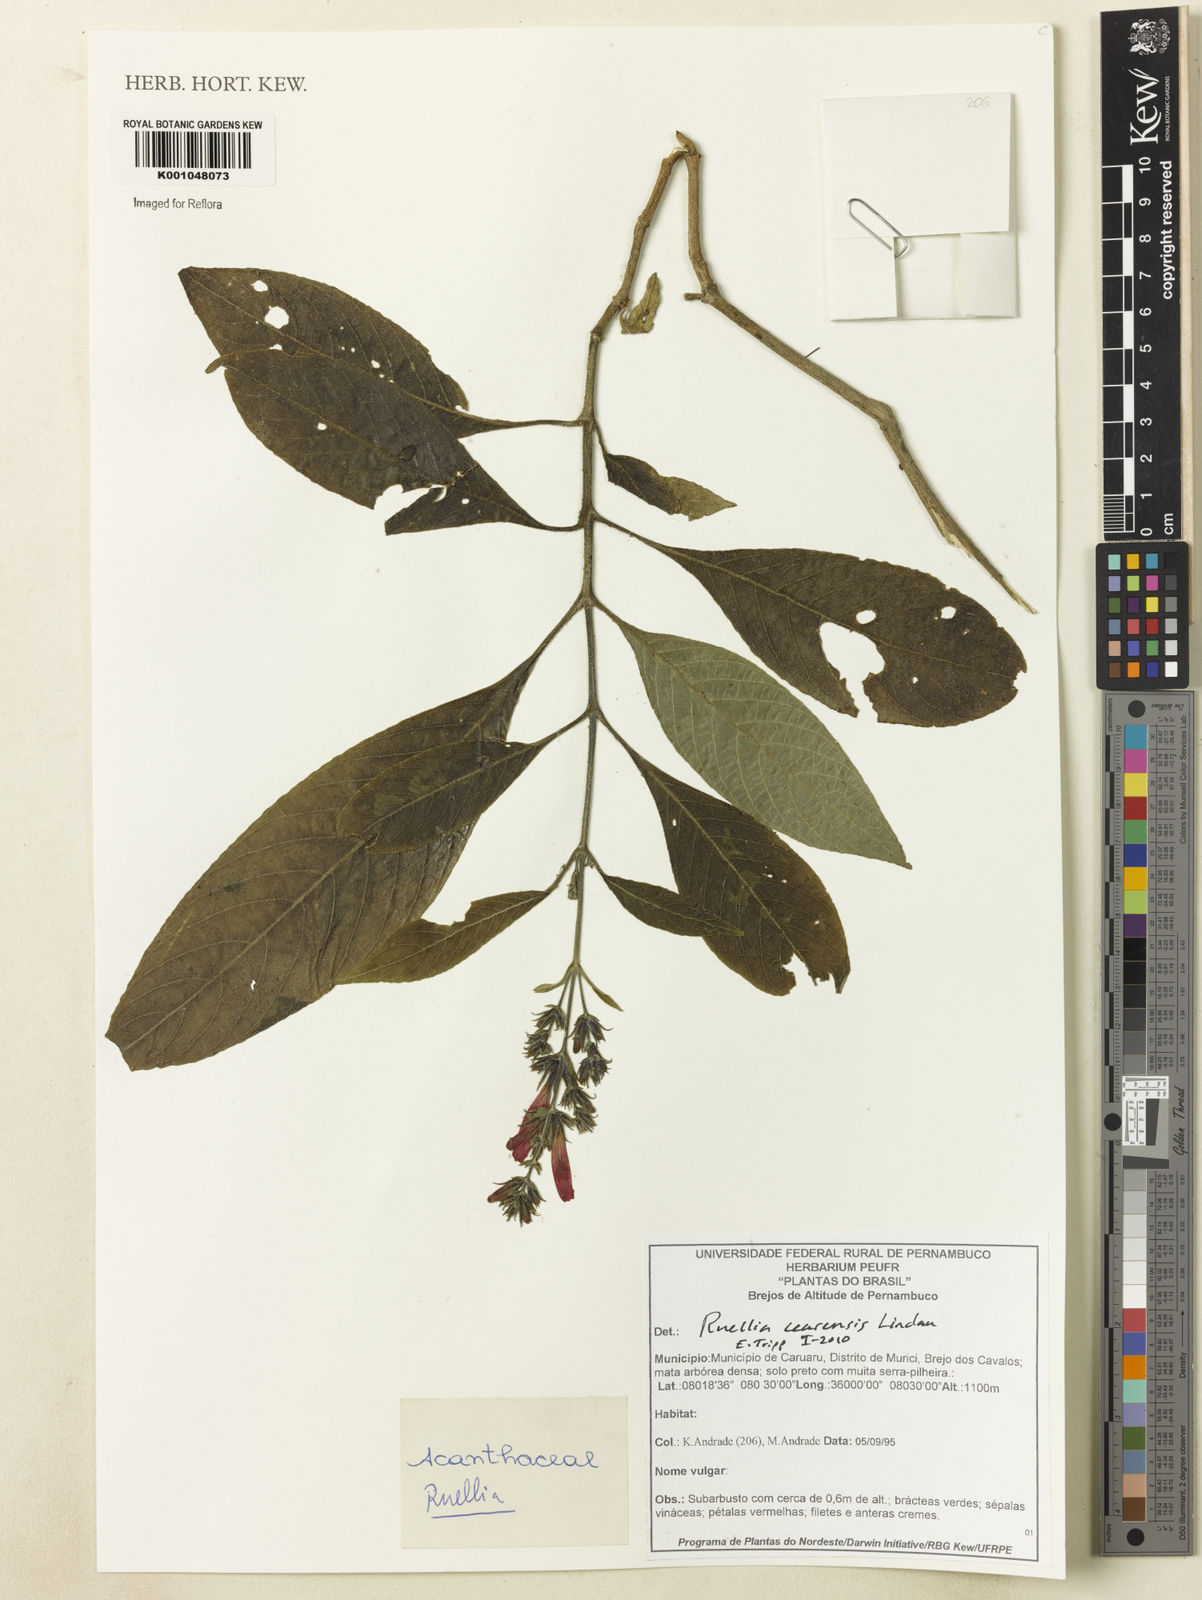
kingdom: Plantae
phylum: Tracheophyta
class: Magnoliopsida
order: Lamiales
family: Acanthaceae
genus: Ruellia
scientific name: Ruellia cearensis
